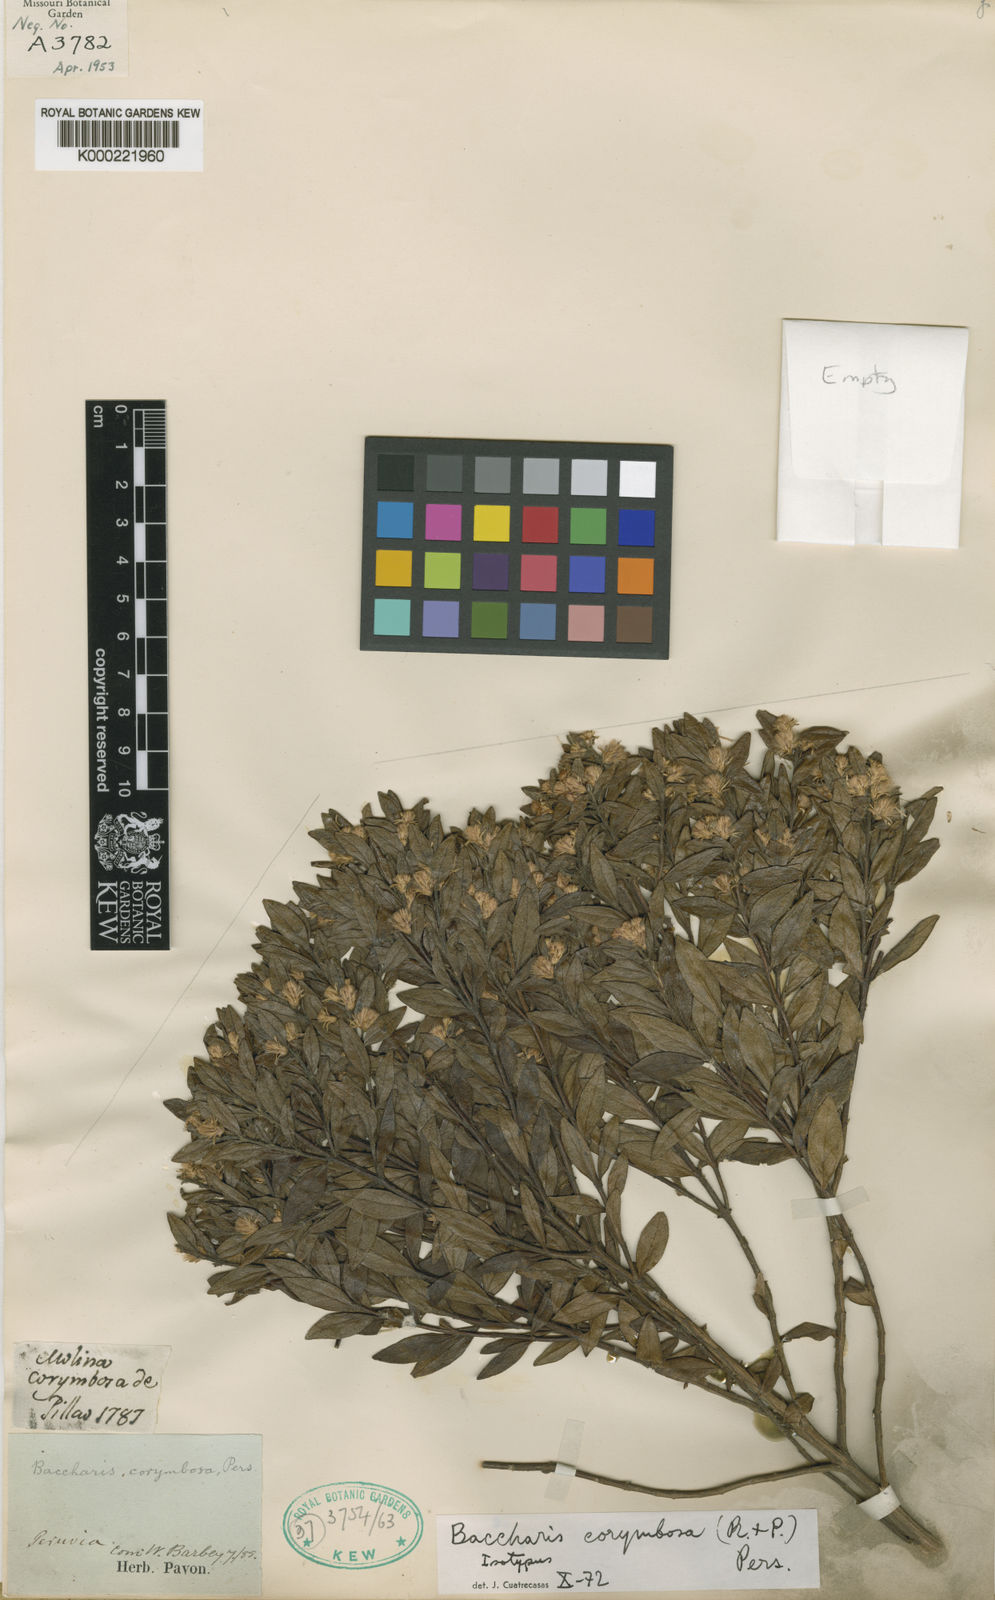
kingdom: Plantae
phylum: Tracheophyta
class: Magnoliopsida
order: Asterales
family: Asteraceae
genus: Baccharis
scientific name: Baccharis corymbosa
